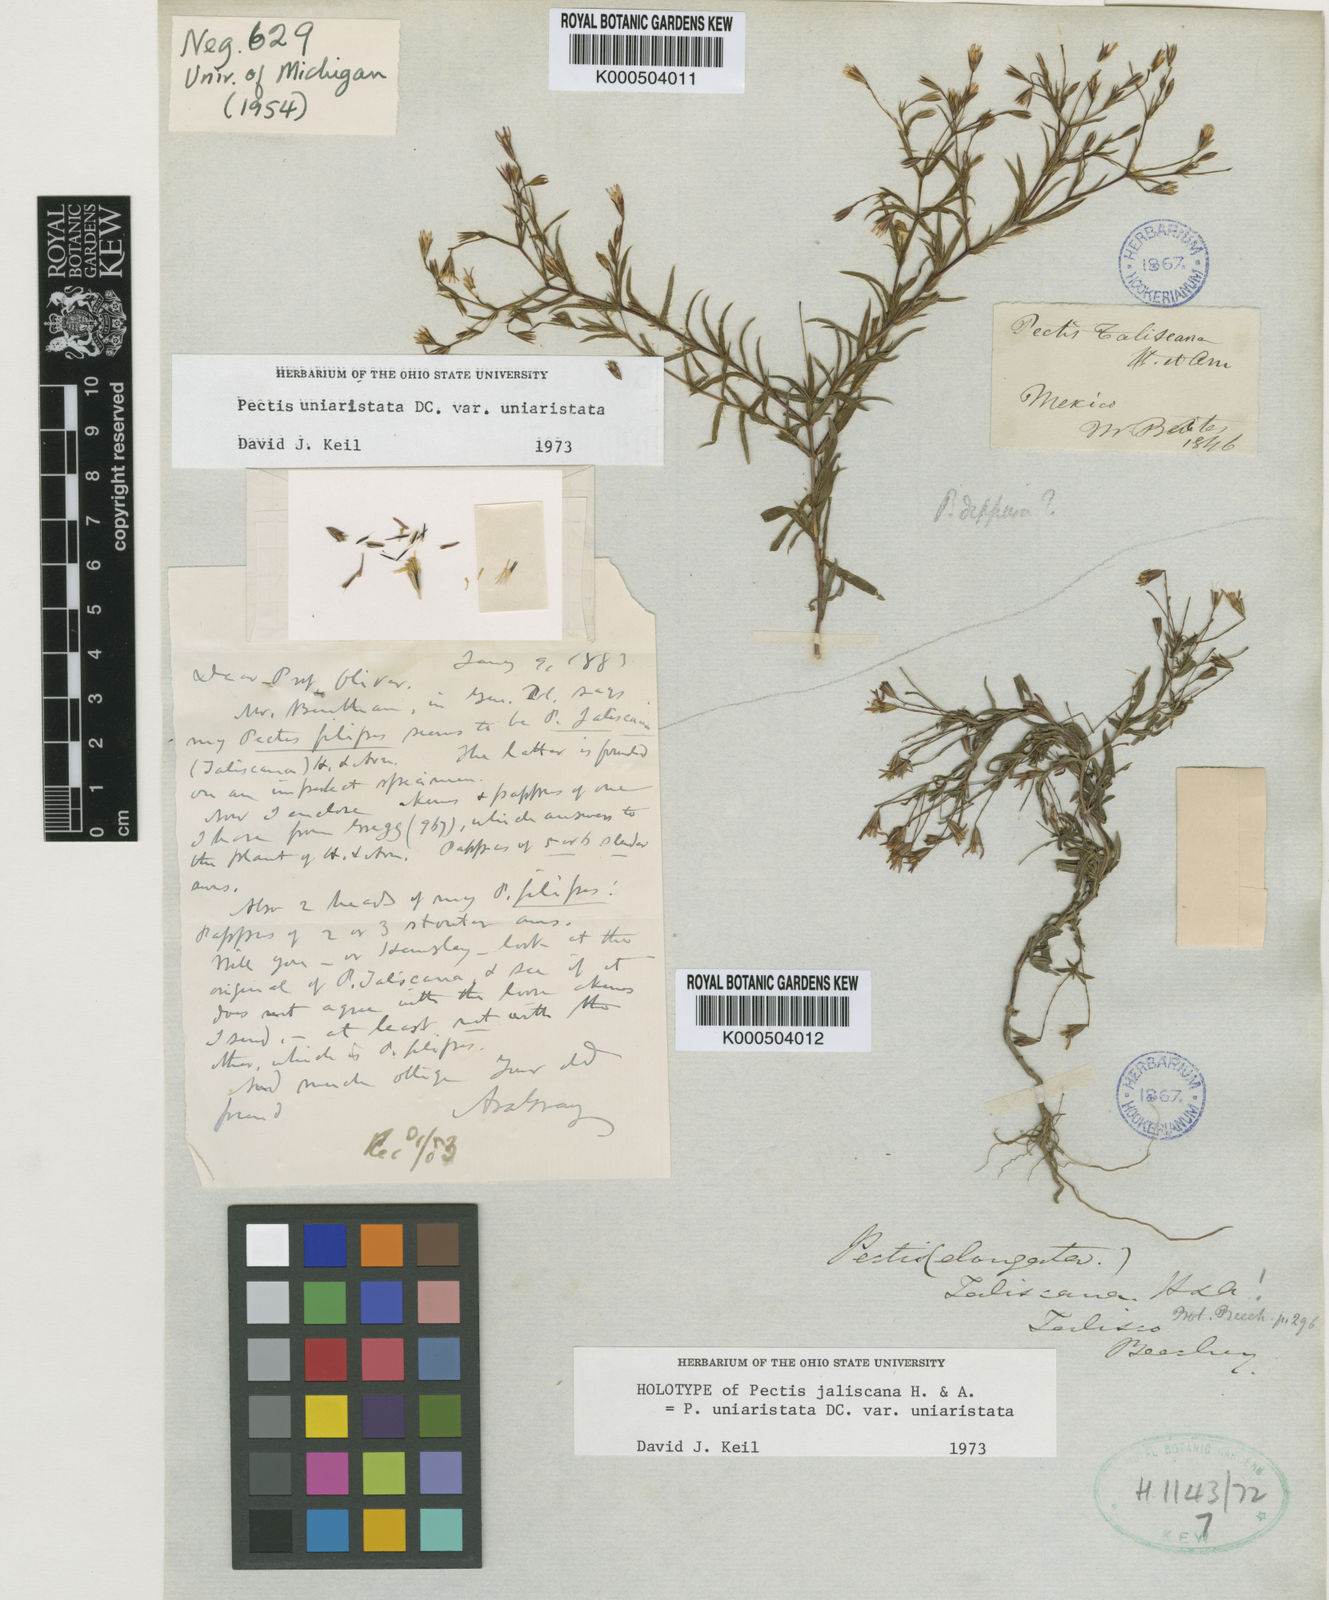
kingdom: Plantae
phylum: Tracheophyta
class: Magnoliopsida
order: Asterales
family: Asteraceae
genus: Pectis
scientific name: Pectis linearis
